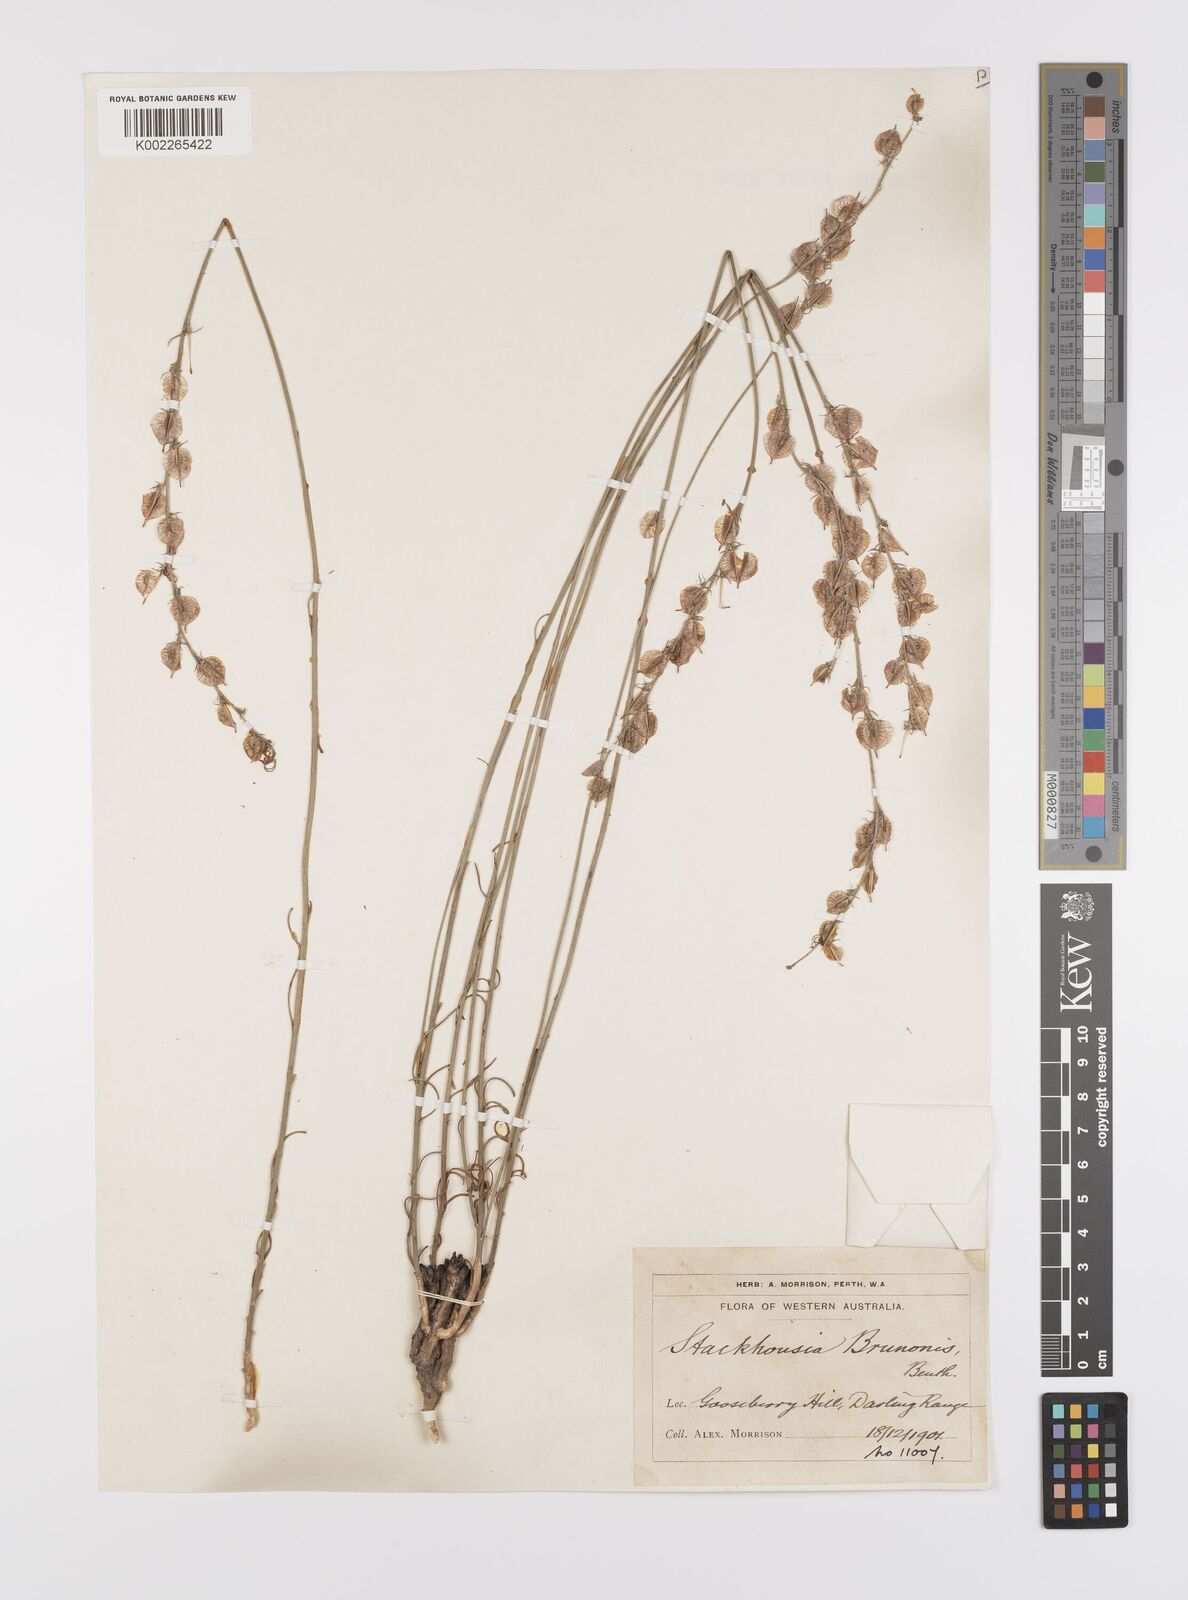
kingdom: Plantae
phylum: Tracheophyta
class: Magnoliopsida
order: Celastrales
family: Celastraceae
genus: Tripterococcus
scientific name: Tripterococcus brunonis
